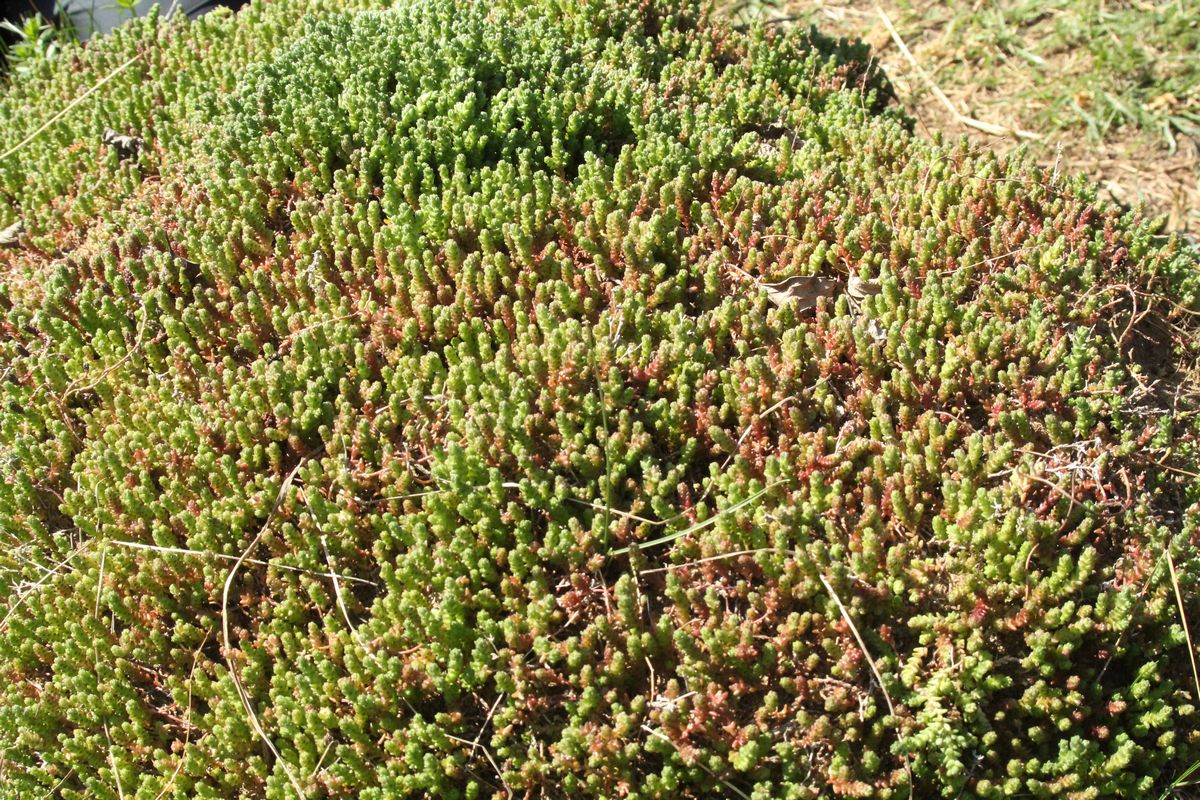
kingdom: Plantae
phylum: Tracheophyta
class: Magnoliopsida
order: Saxifragales
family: Crassulaceae
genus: Sedum
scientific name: Sedum acre
